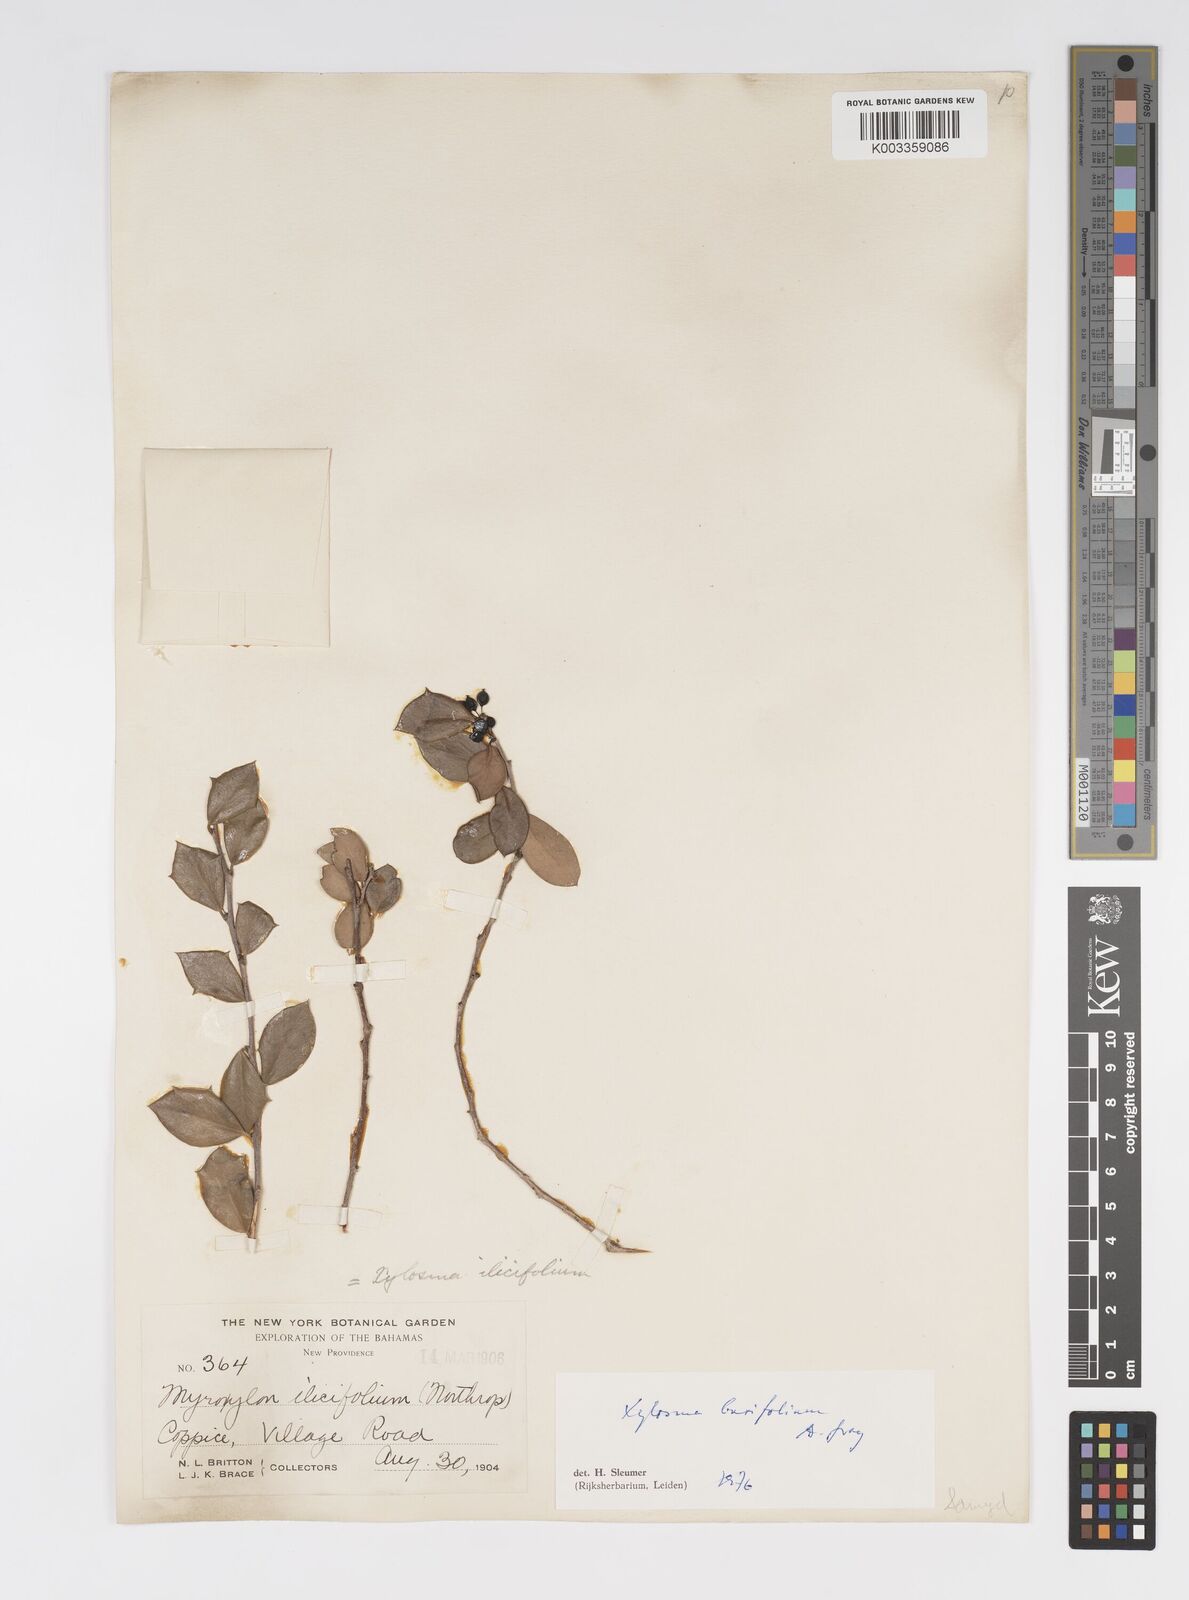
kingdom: Plantae
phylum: Tracheophyta
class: Magnoliopsida
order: Malpighiales
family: Salicaceae
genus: Xylosma
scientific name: Xylosma buxifolia
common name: Cockspur
